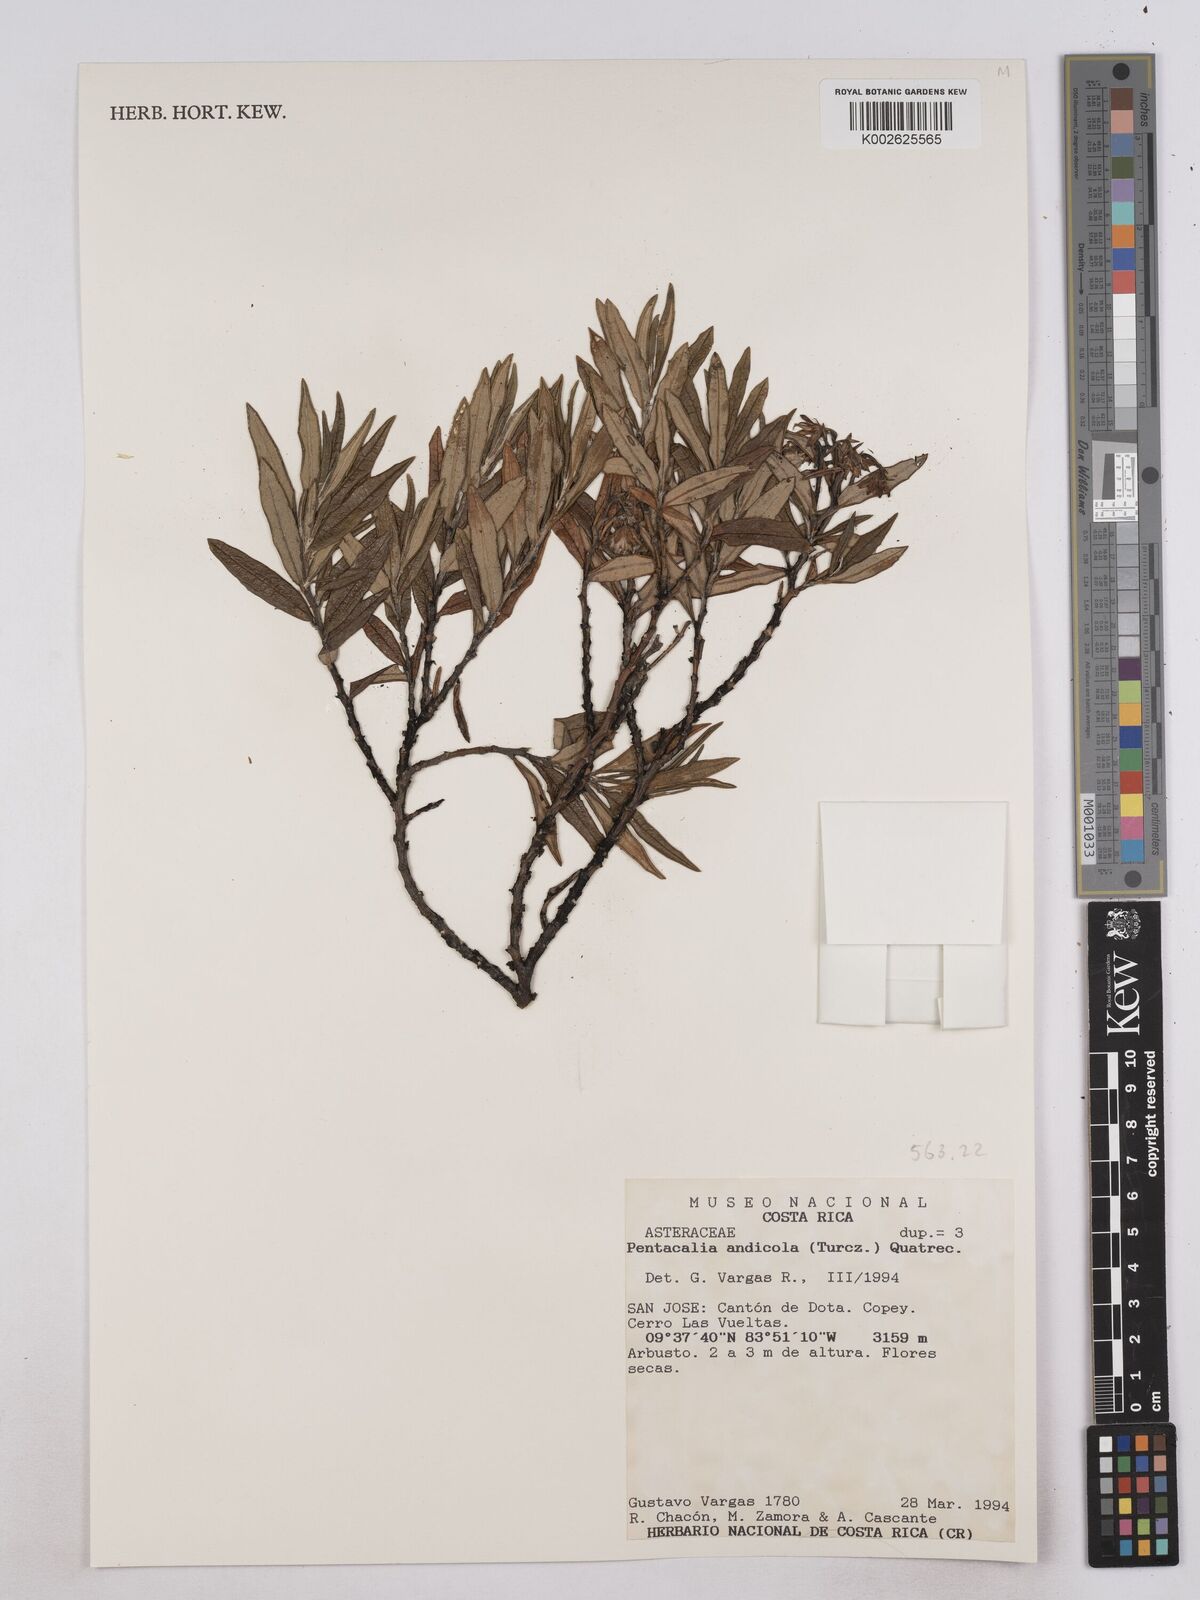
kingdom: Plantae
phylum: Tracheophyta
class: Magnoliopsida
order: Asterales
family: Asteraceae
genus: Monticalia
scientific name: Monticalia andicola
